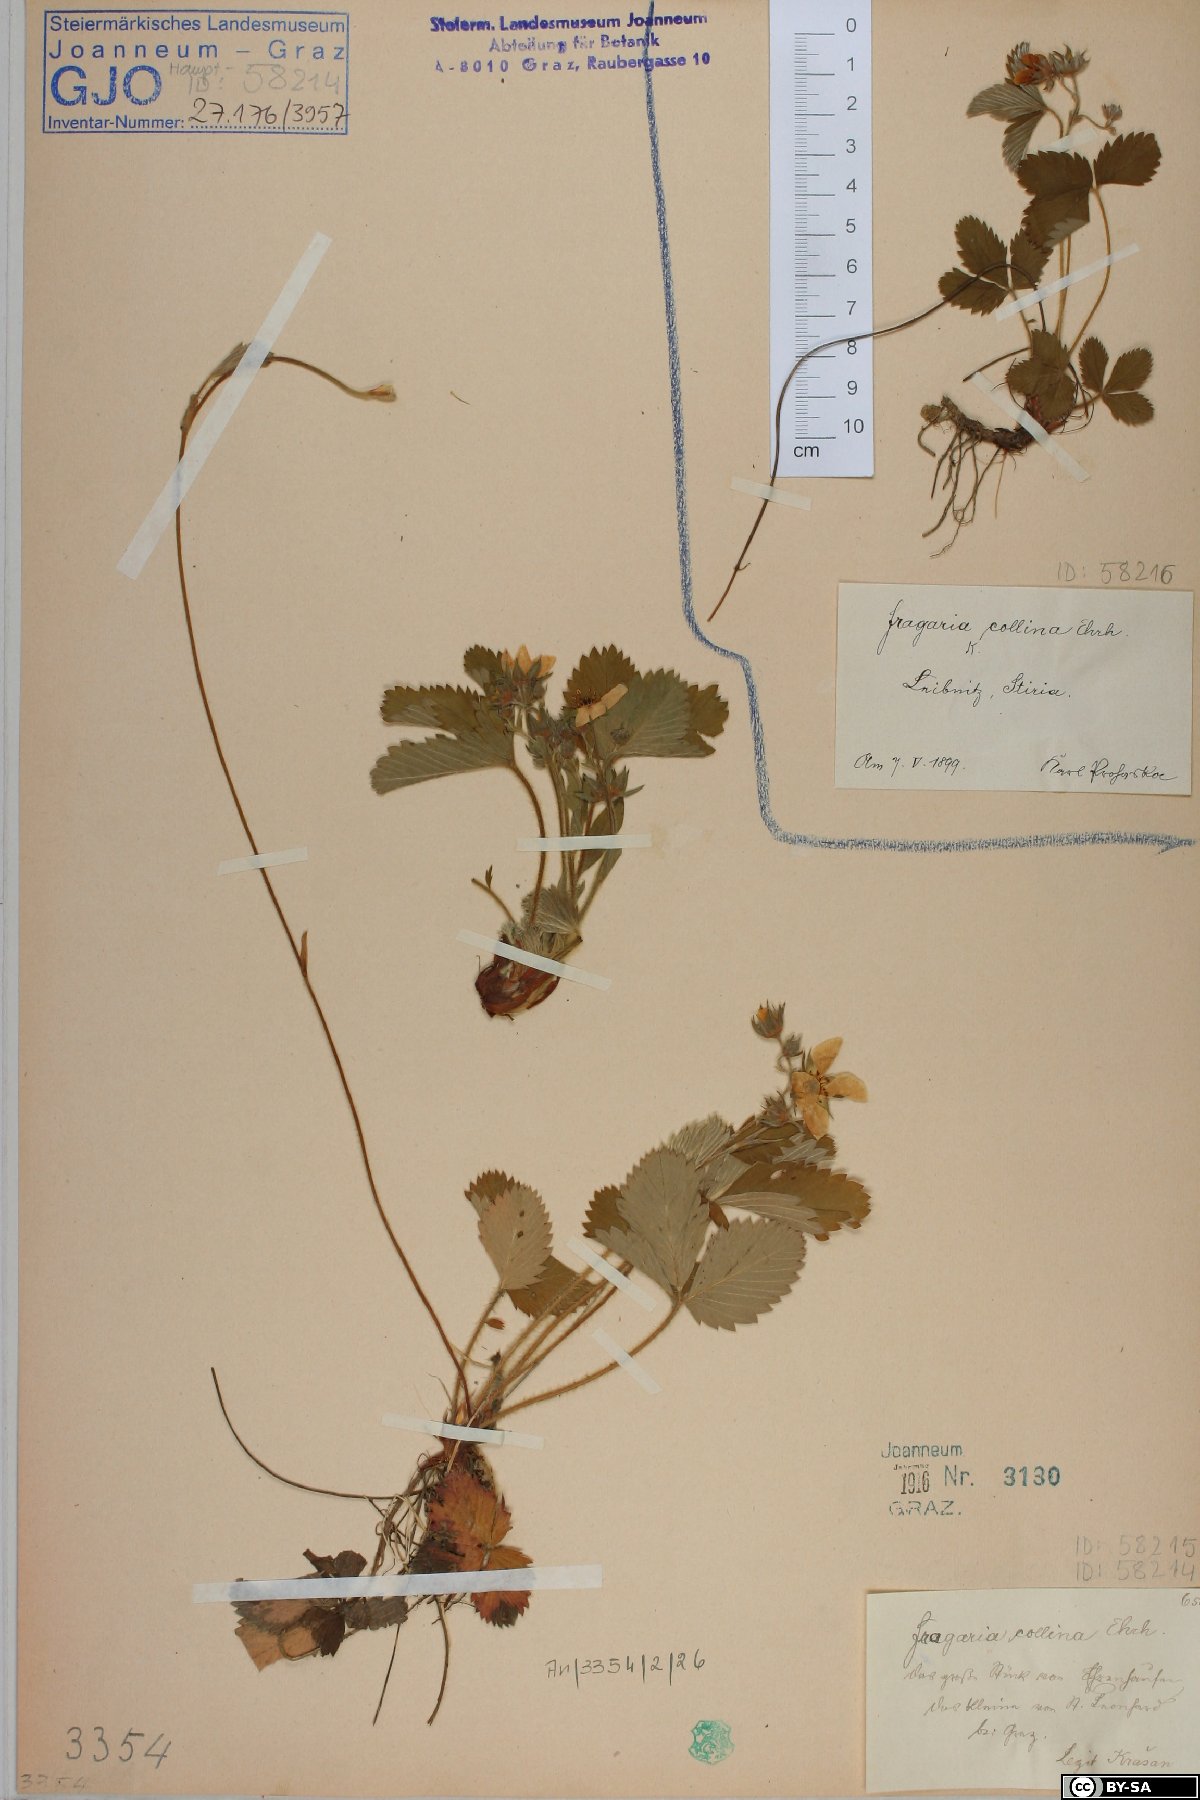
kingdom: Plantae
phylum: Tracheophyta
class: Magnoliopsida
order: Rosales
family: Rosaceae
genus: Fragaria
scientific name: Fragaria viridis
